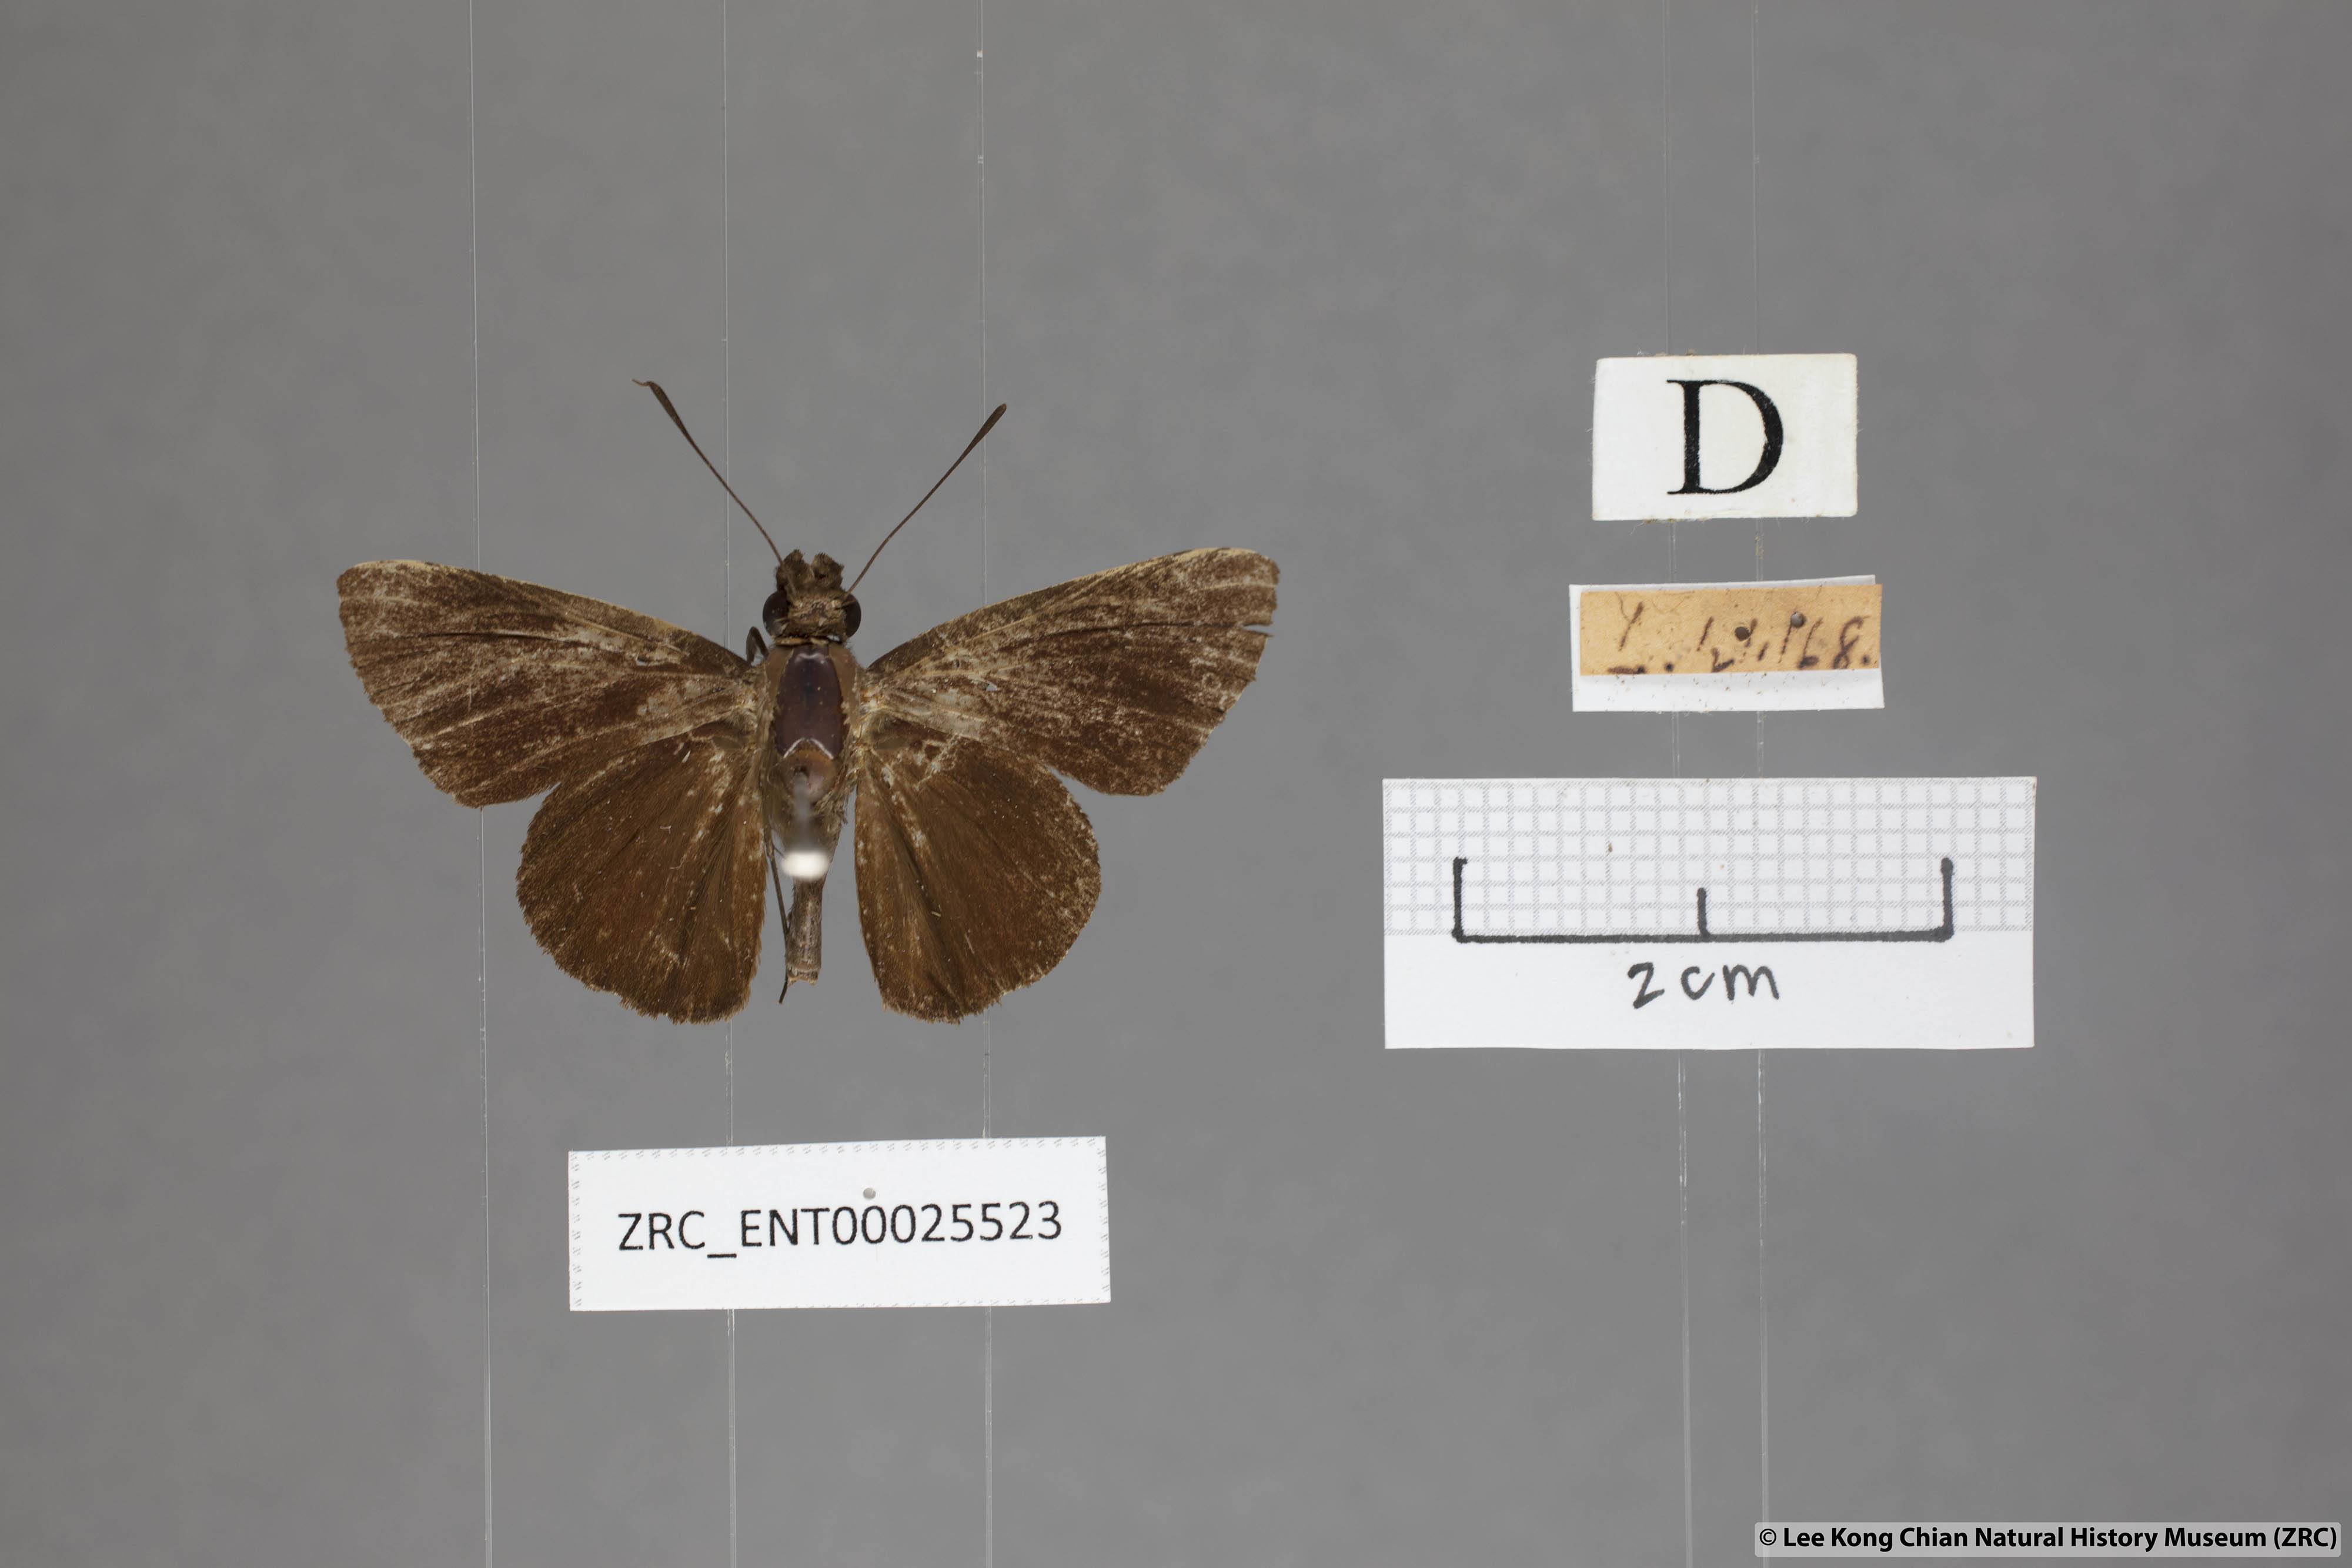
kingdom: Animalia
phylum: Arthropoda
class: Insecta
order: Lepidoptera
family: Hesperiidae
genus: Quedara
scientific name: Quedara monteithi
